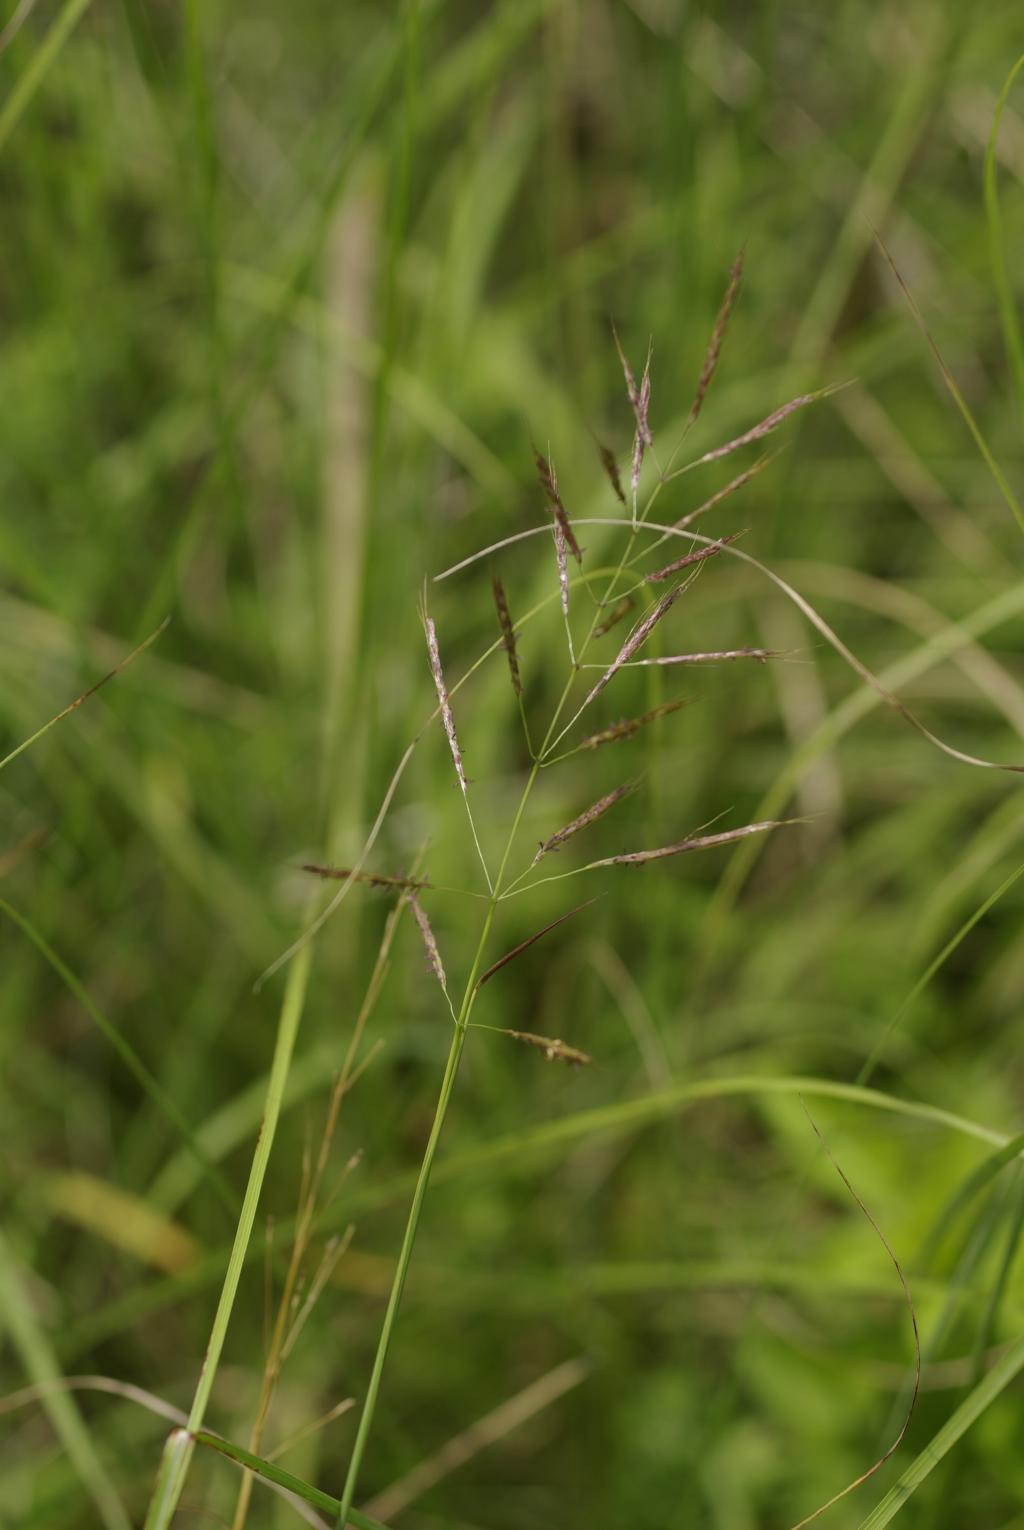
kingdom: Plantae
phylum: Tracheophyta
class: Liliopsida
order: Poales
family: Poaceae
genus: Bothriochloa
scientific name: Bothriochloa bladhii
